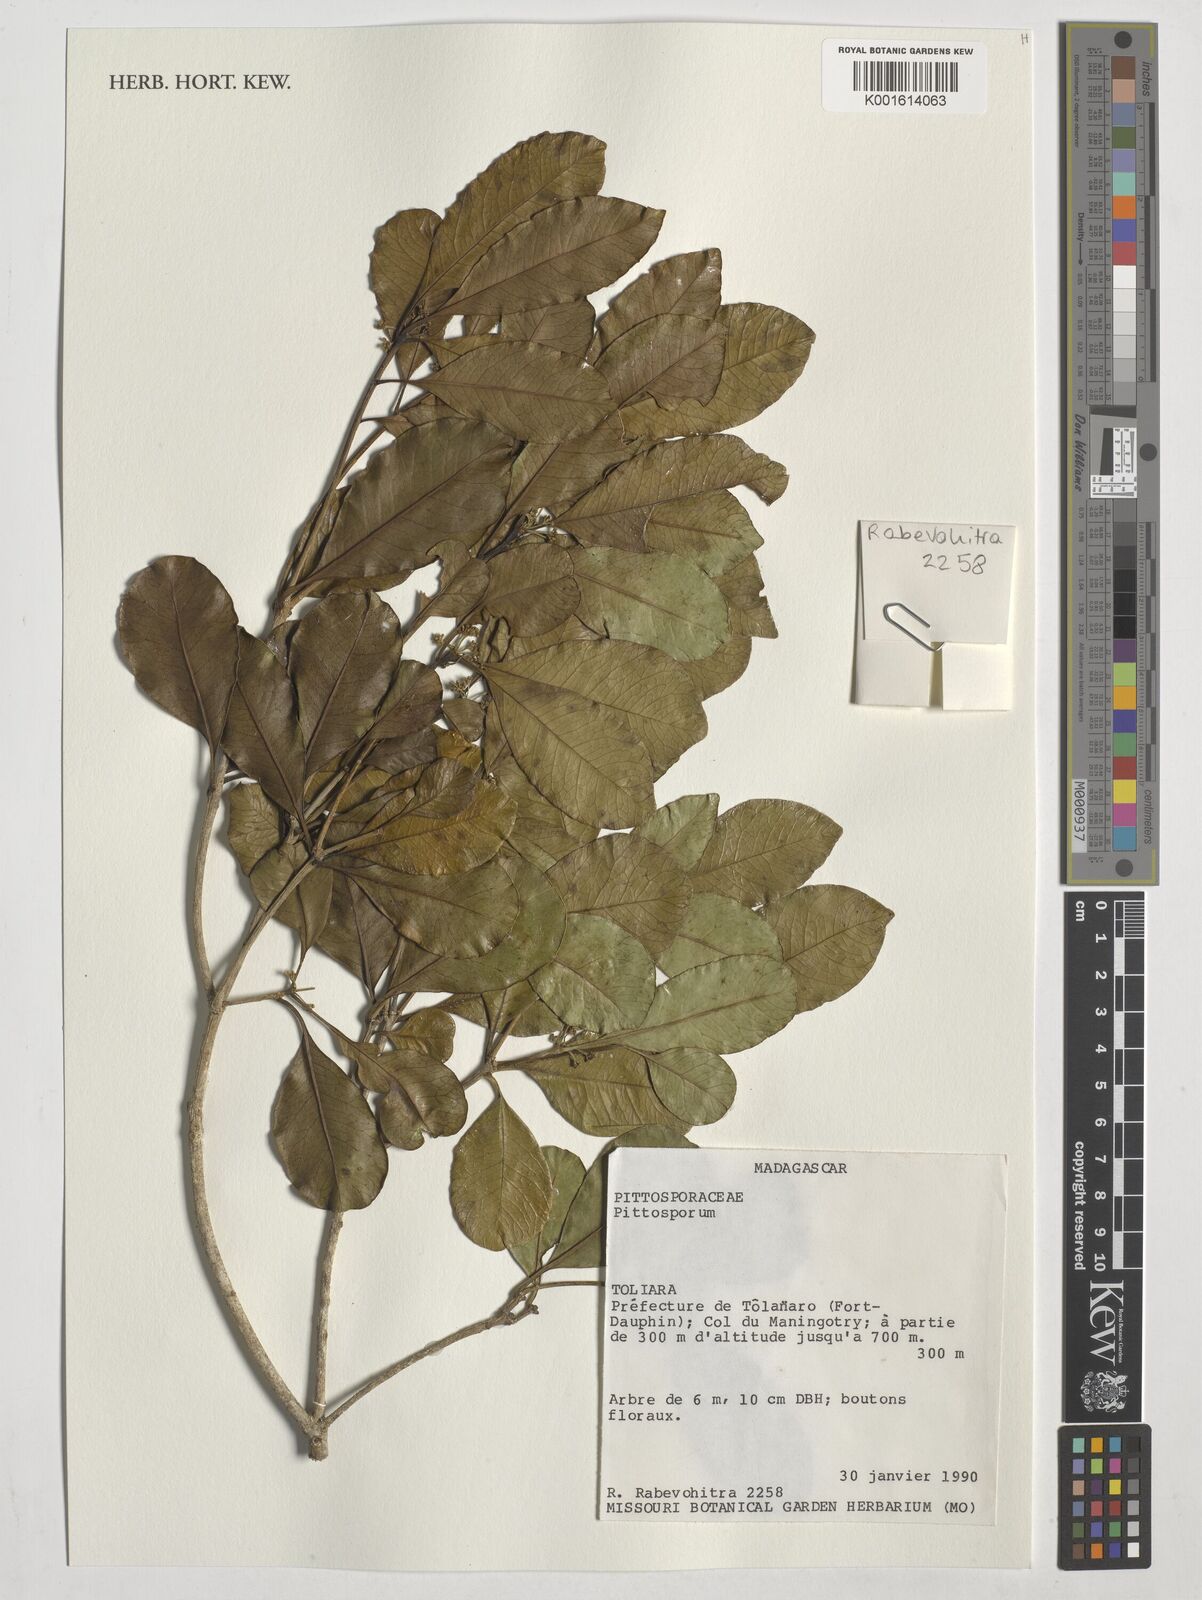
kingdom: Plantae
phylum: Tracheophyta
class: Magnoliopsida
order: Apiales
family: Pittosporaceae
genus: Pittosporum
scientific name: Pittosporum
